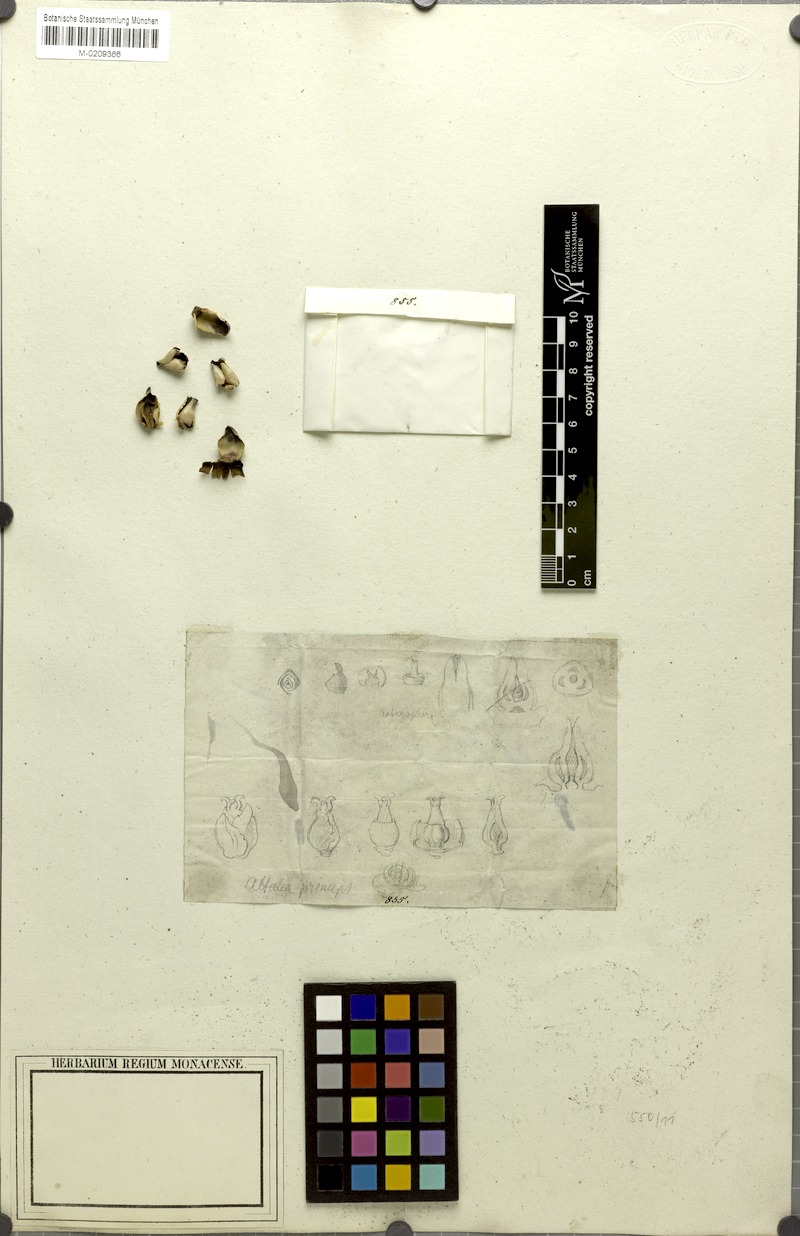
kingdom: Plantae
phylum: Tracheophyta
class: Liliopsida
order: Arecales
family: Arecaceae
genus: Attalea
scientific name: Attalea funifera
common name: Piassava palm
